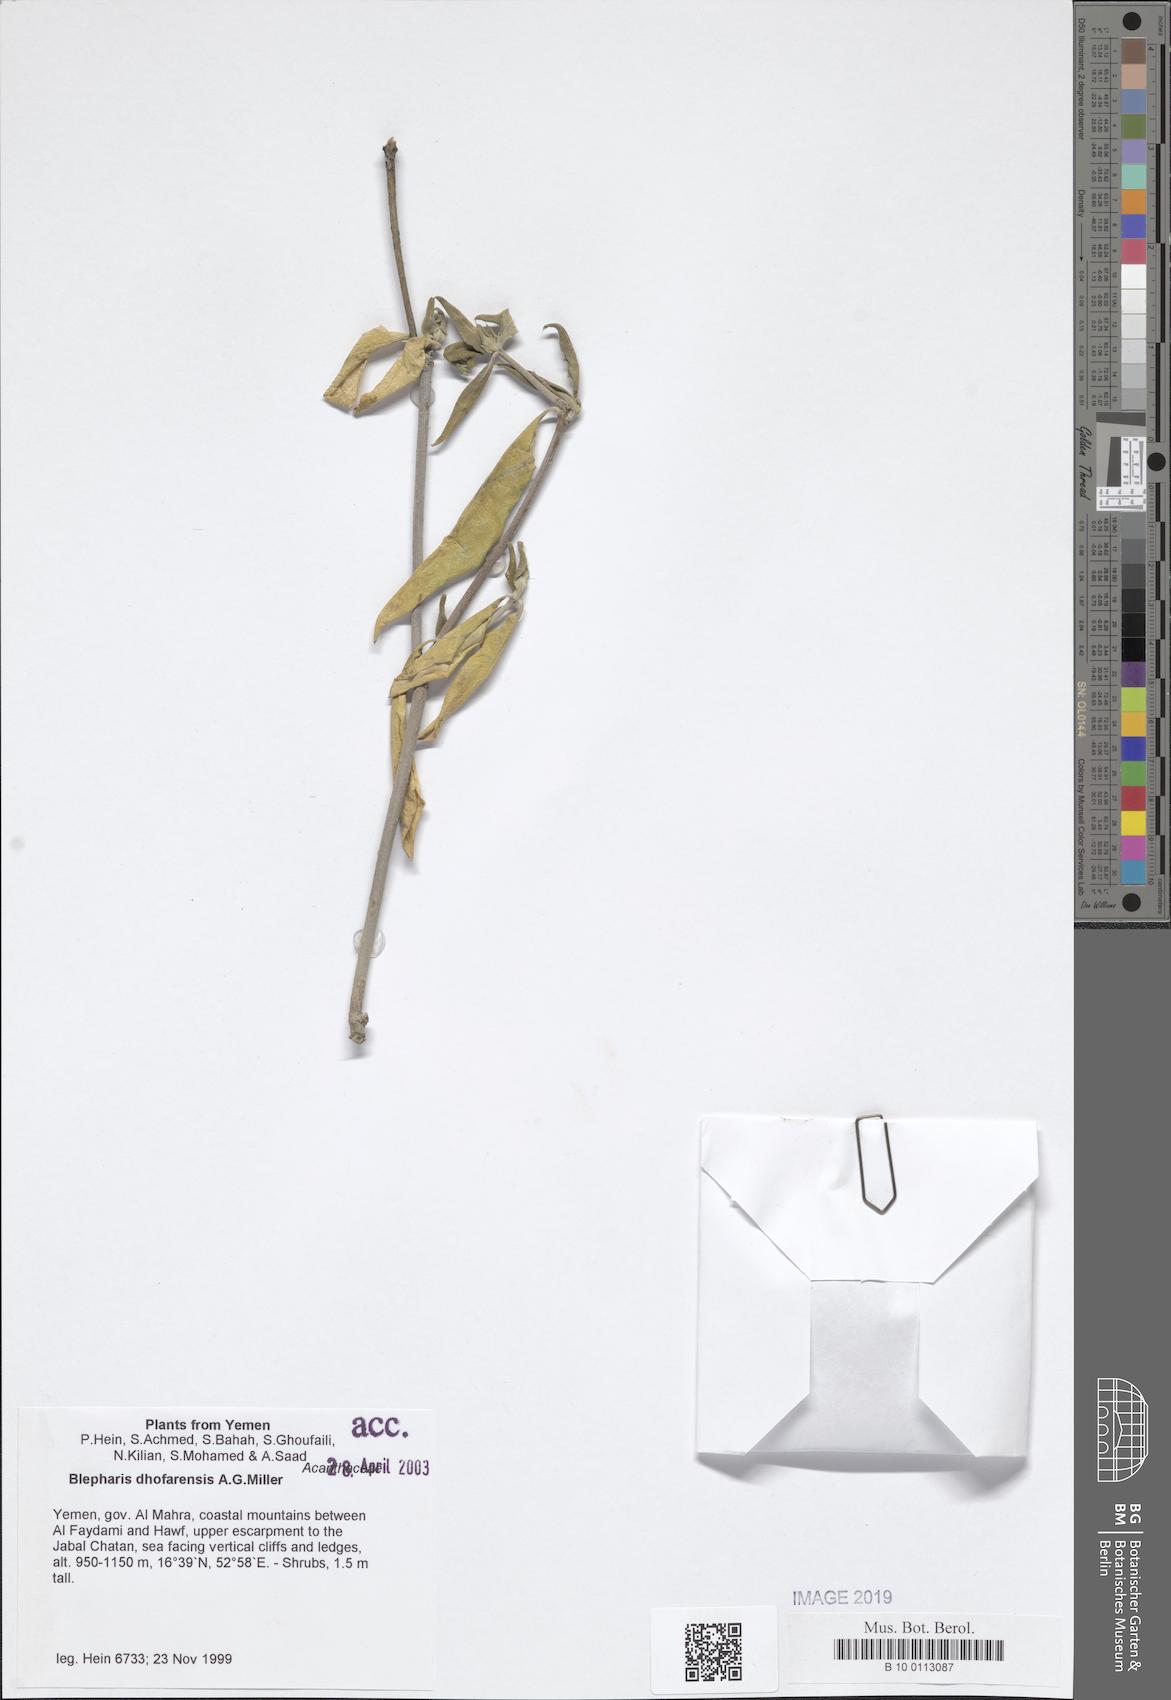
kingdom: Plantae
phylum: Tracheophyta
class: Magnoliopsida
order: Lamiales
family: Acanthaceae
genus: Blepharis
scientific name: Blepharis dhofarensis
